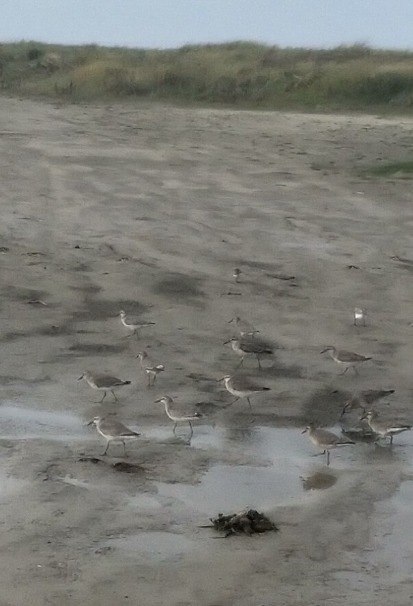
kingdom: Animalia
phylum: Chordata
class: Aves
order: Charadriiformes
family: Scolopacidae
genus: Calidris
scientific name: Calidris canutus
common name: Islandsk ryle
